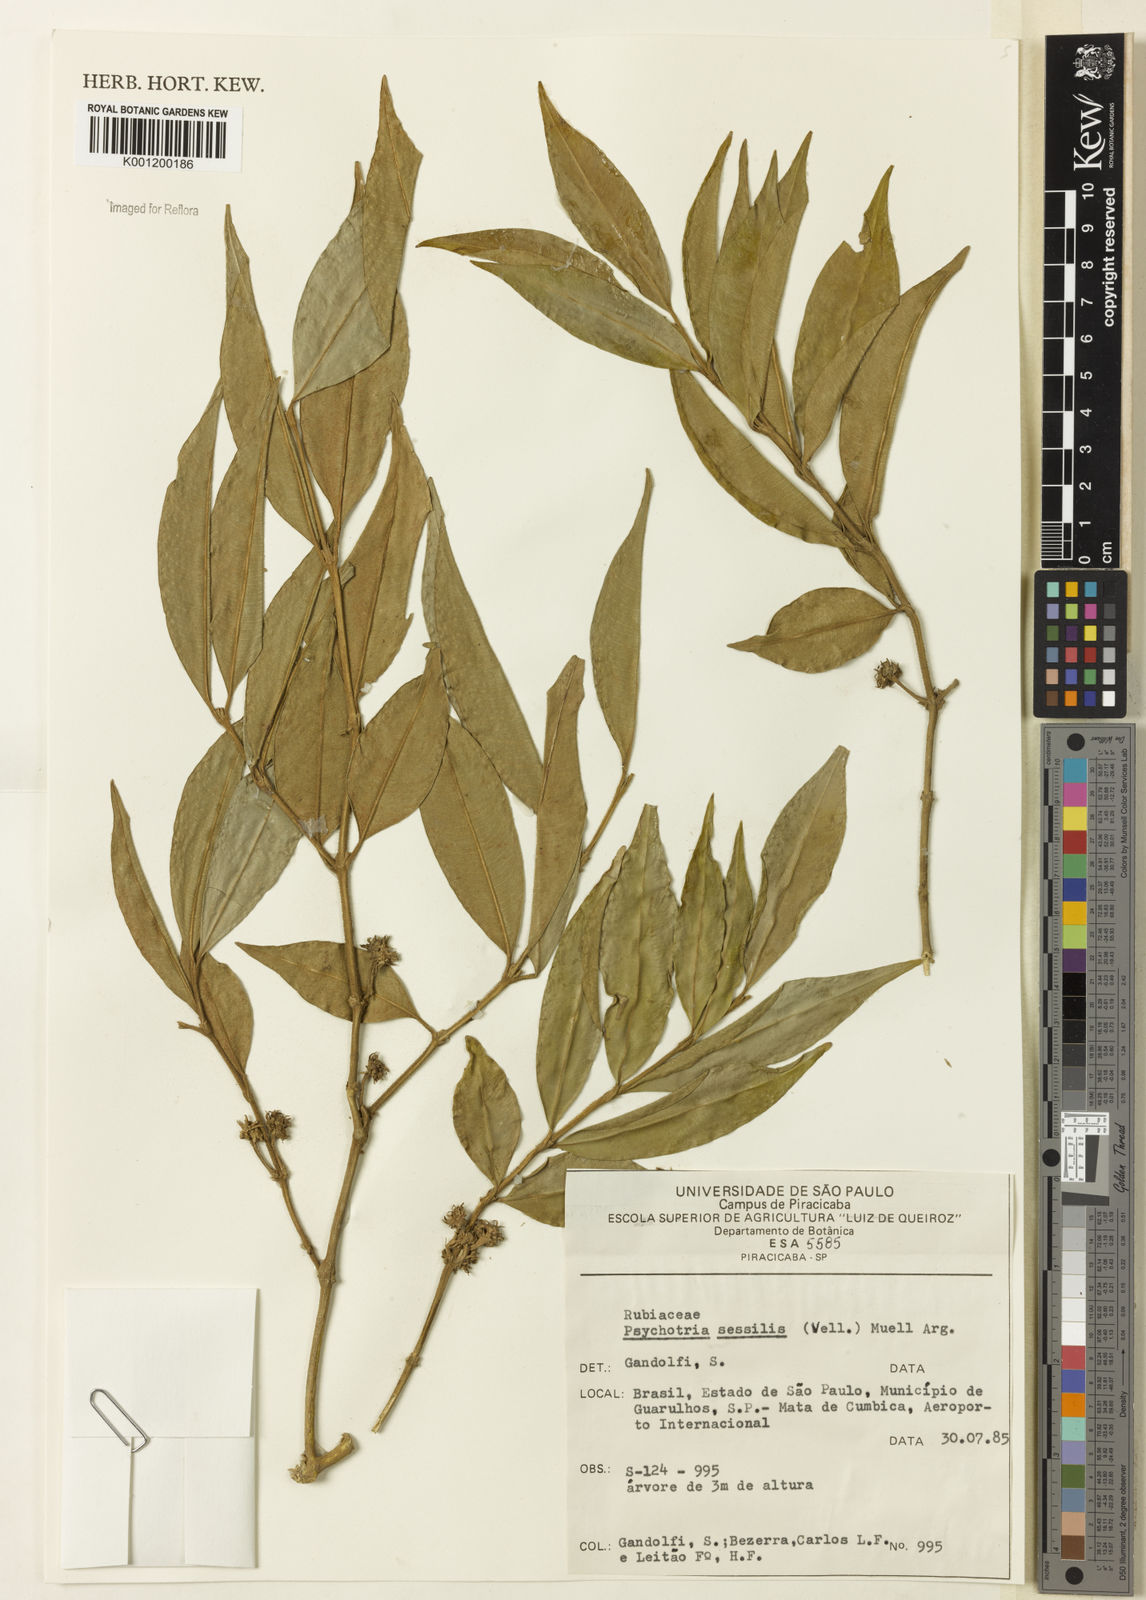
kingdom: Plantae
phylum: Tracheophyta
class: Magnoliopsida
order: Gentianales
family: Rubiaceae
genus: Rudgea
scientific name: Rudgea sessilis
